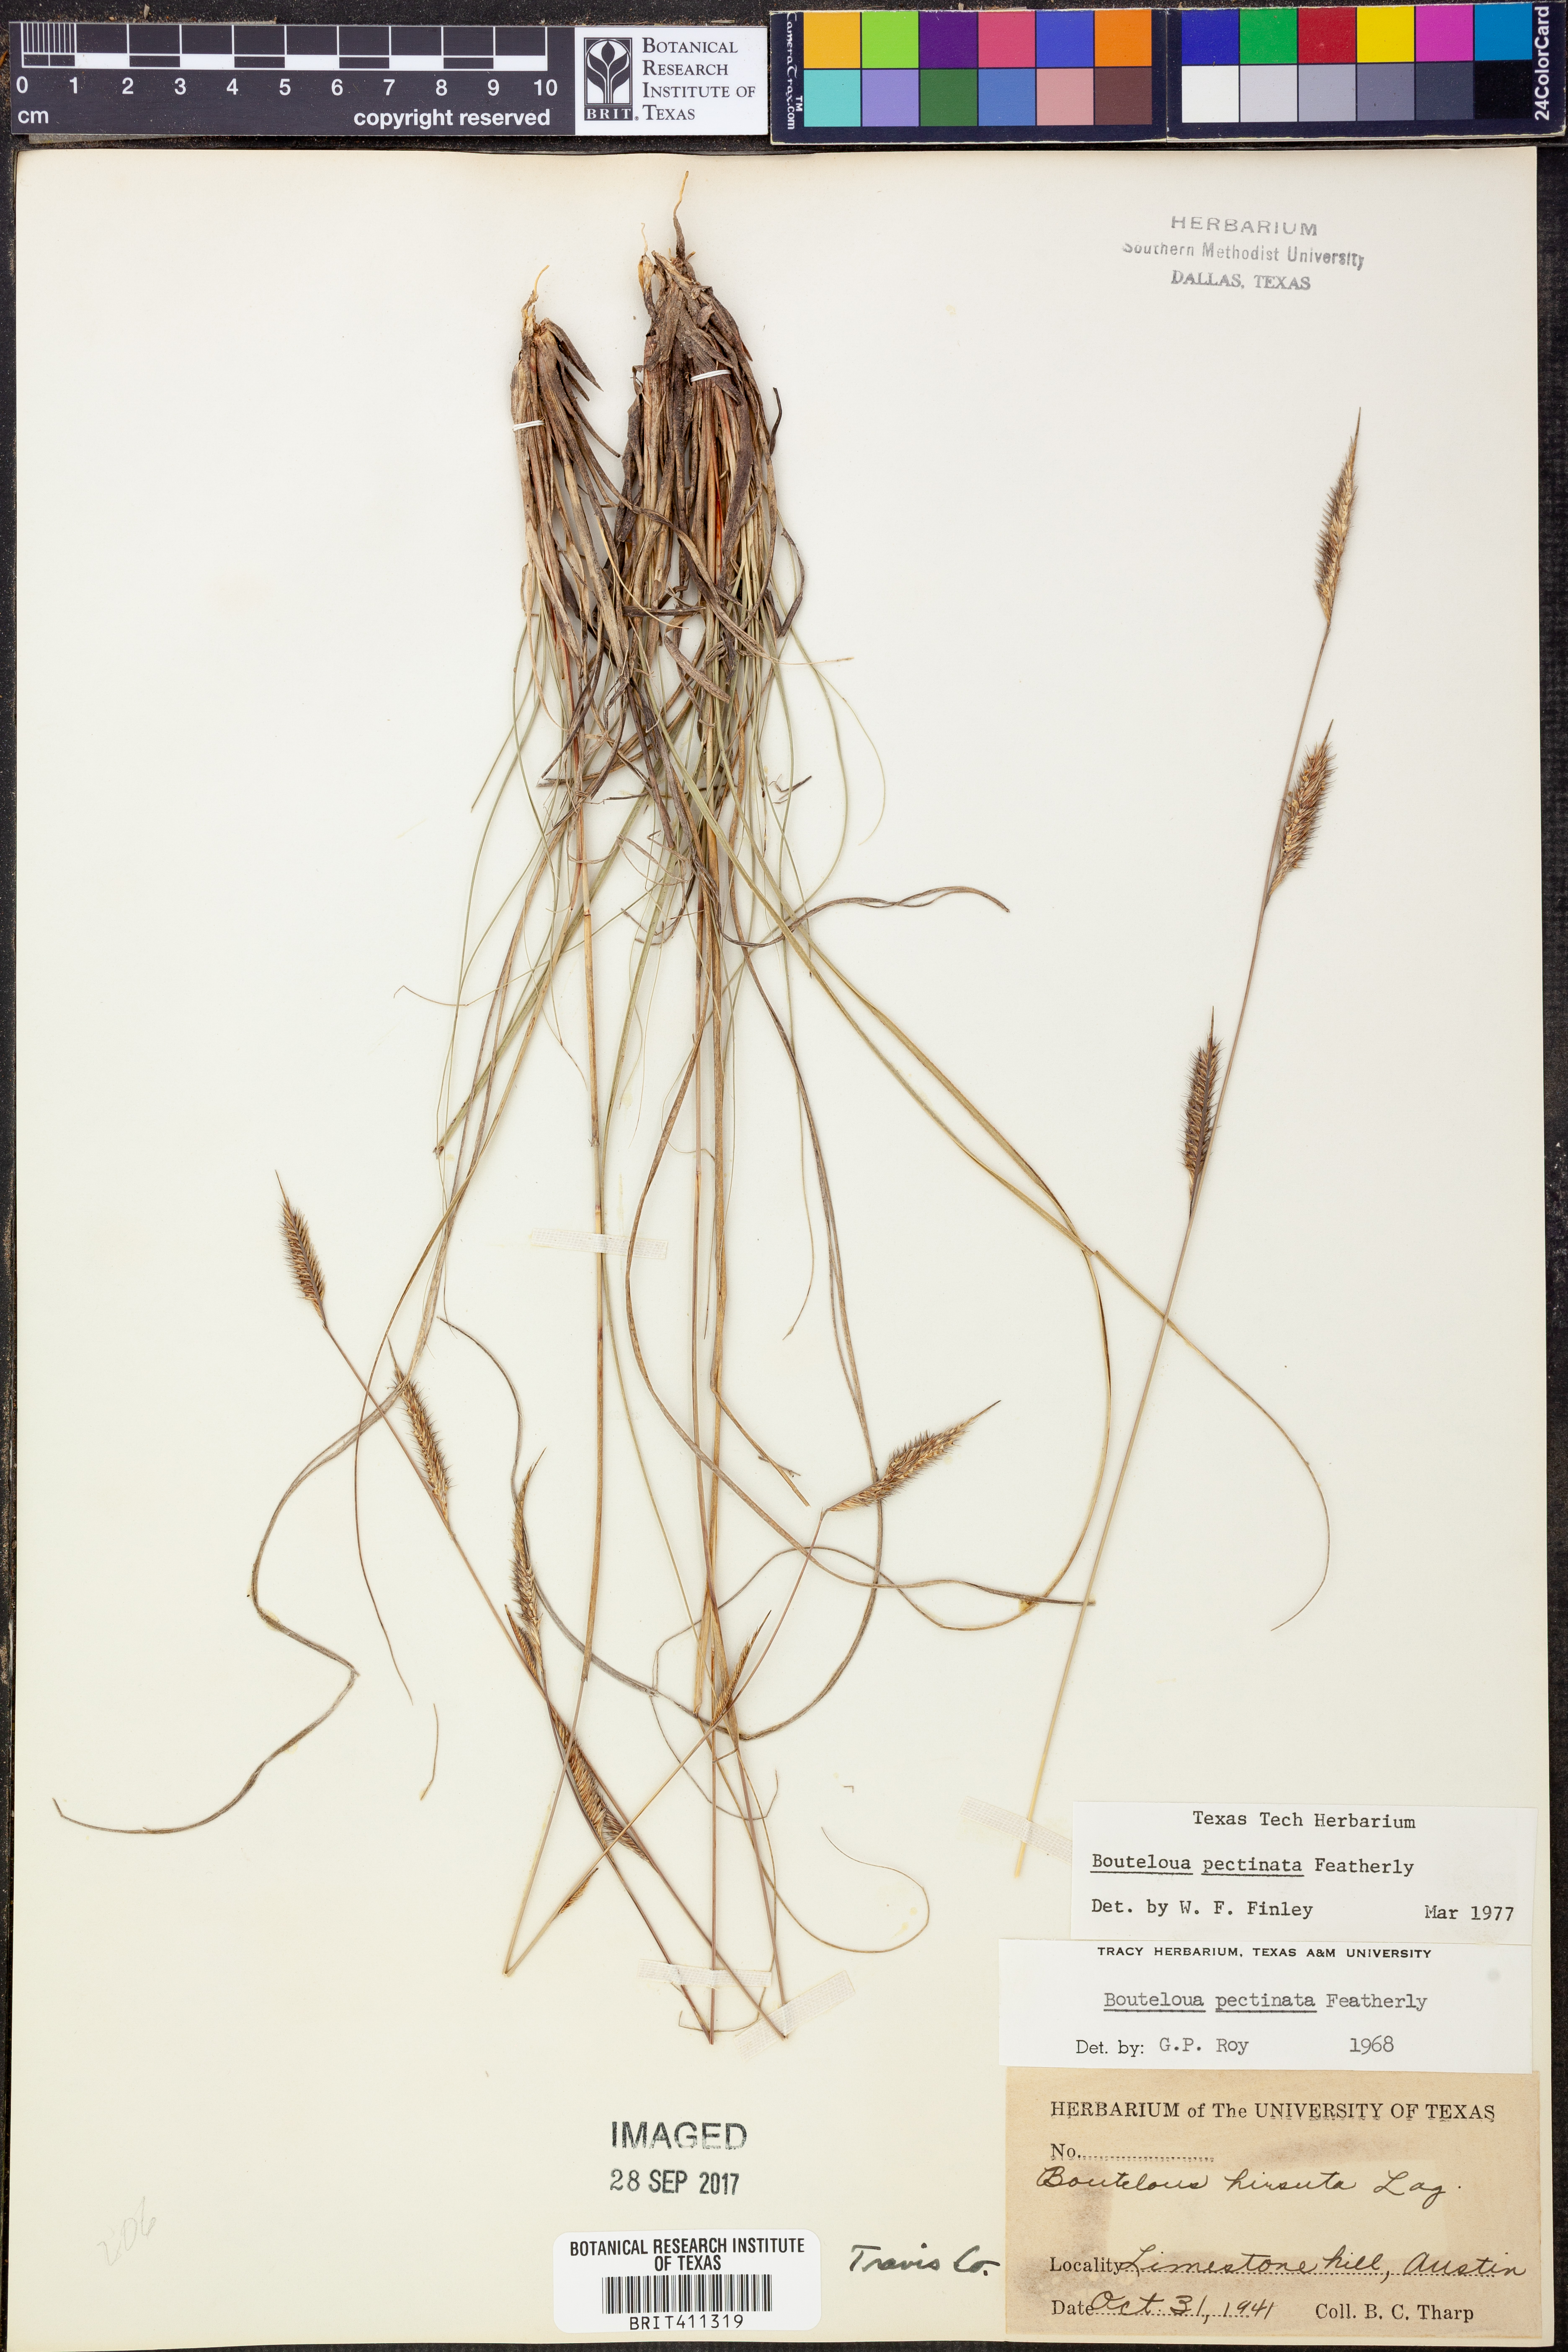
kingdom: Plantae
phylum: Tracheophyta
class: Liliopsida
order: Poales
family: Poaceae
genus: Bouteloua
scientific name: Bouteloua pectinata
